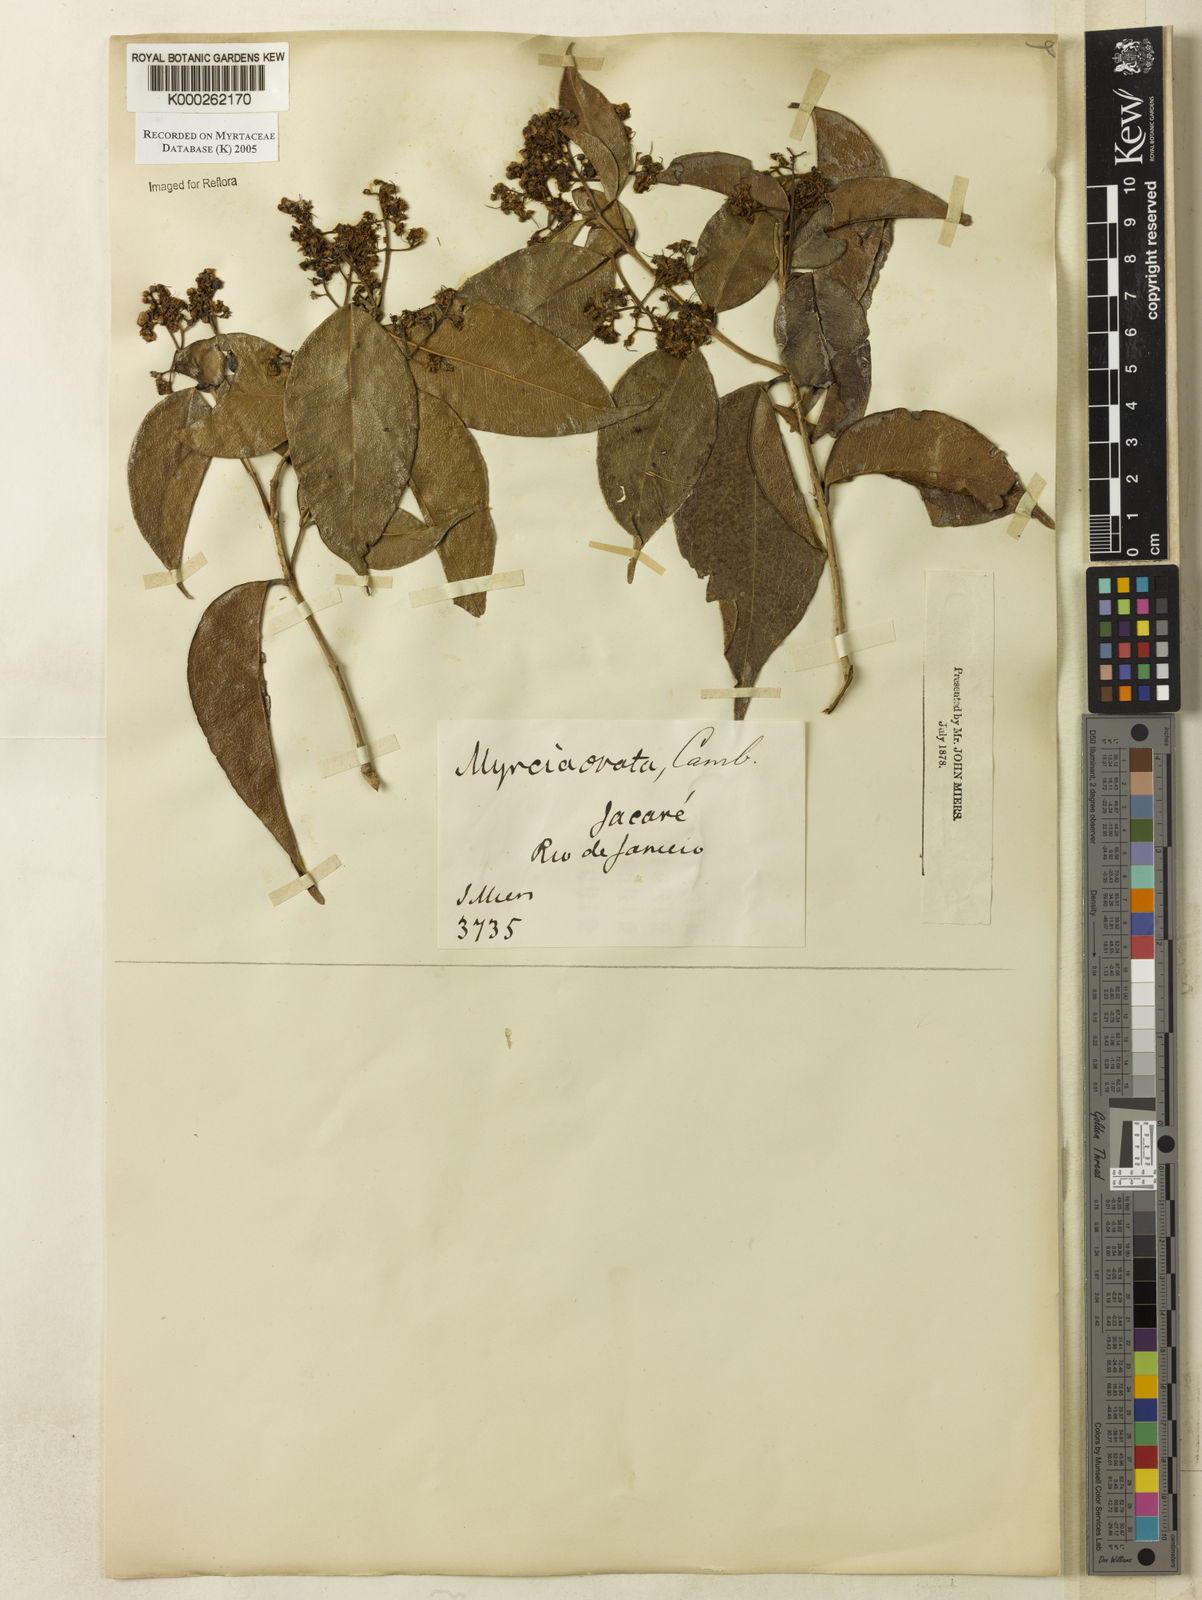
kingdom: Plantae
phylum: Tracheophyta
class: Magnoliopsida
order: Myrtales
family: Myrtaceae
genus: Myrcia
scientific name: Myrcia ovata
